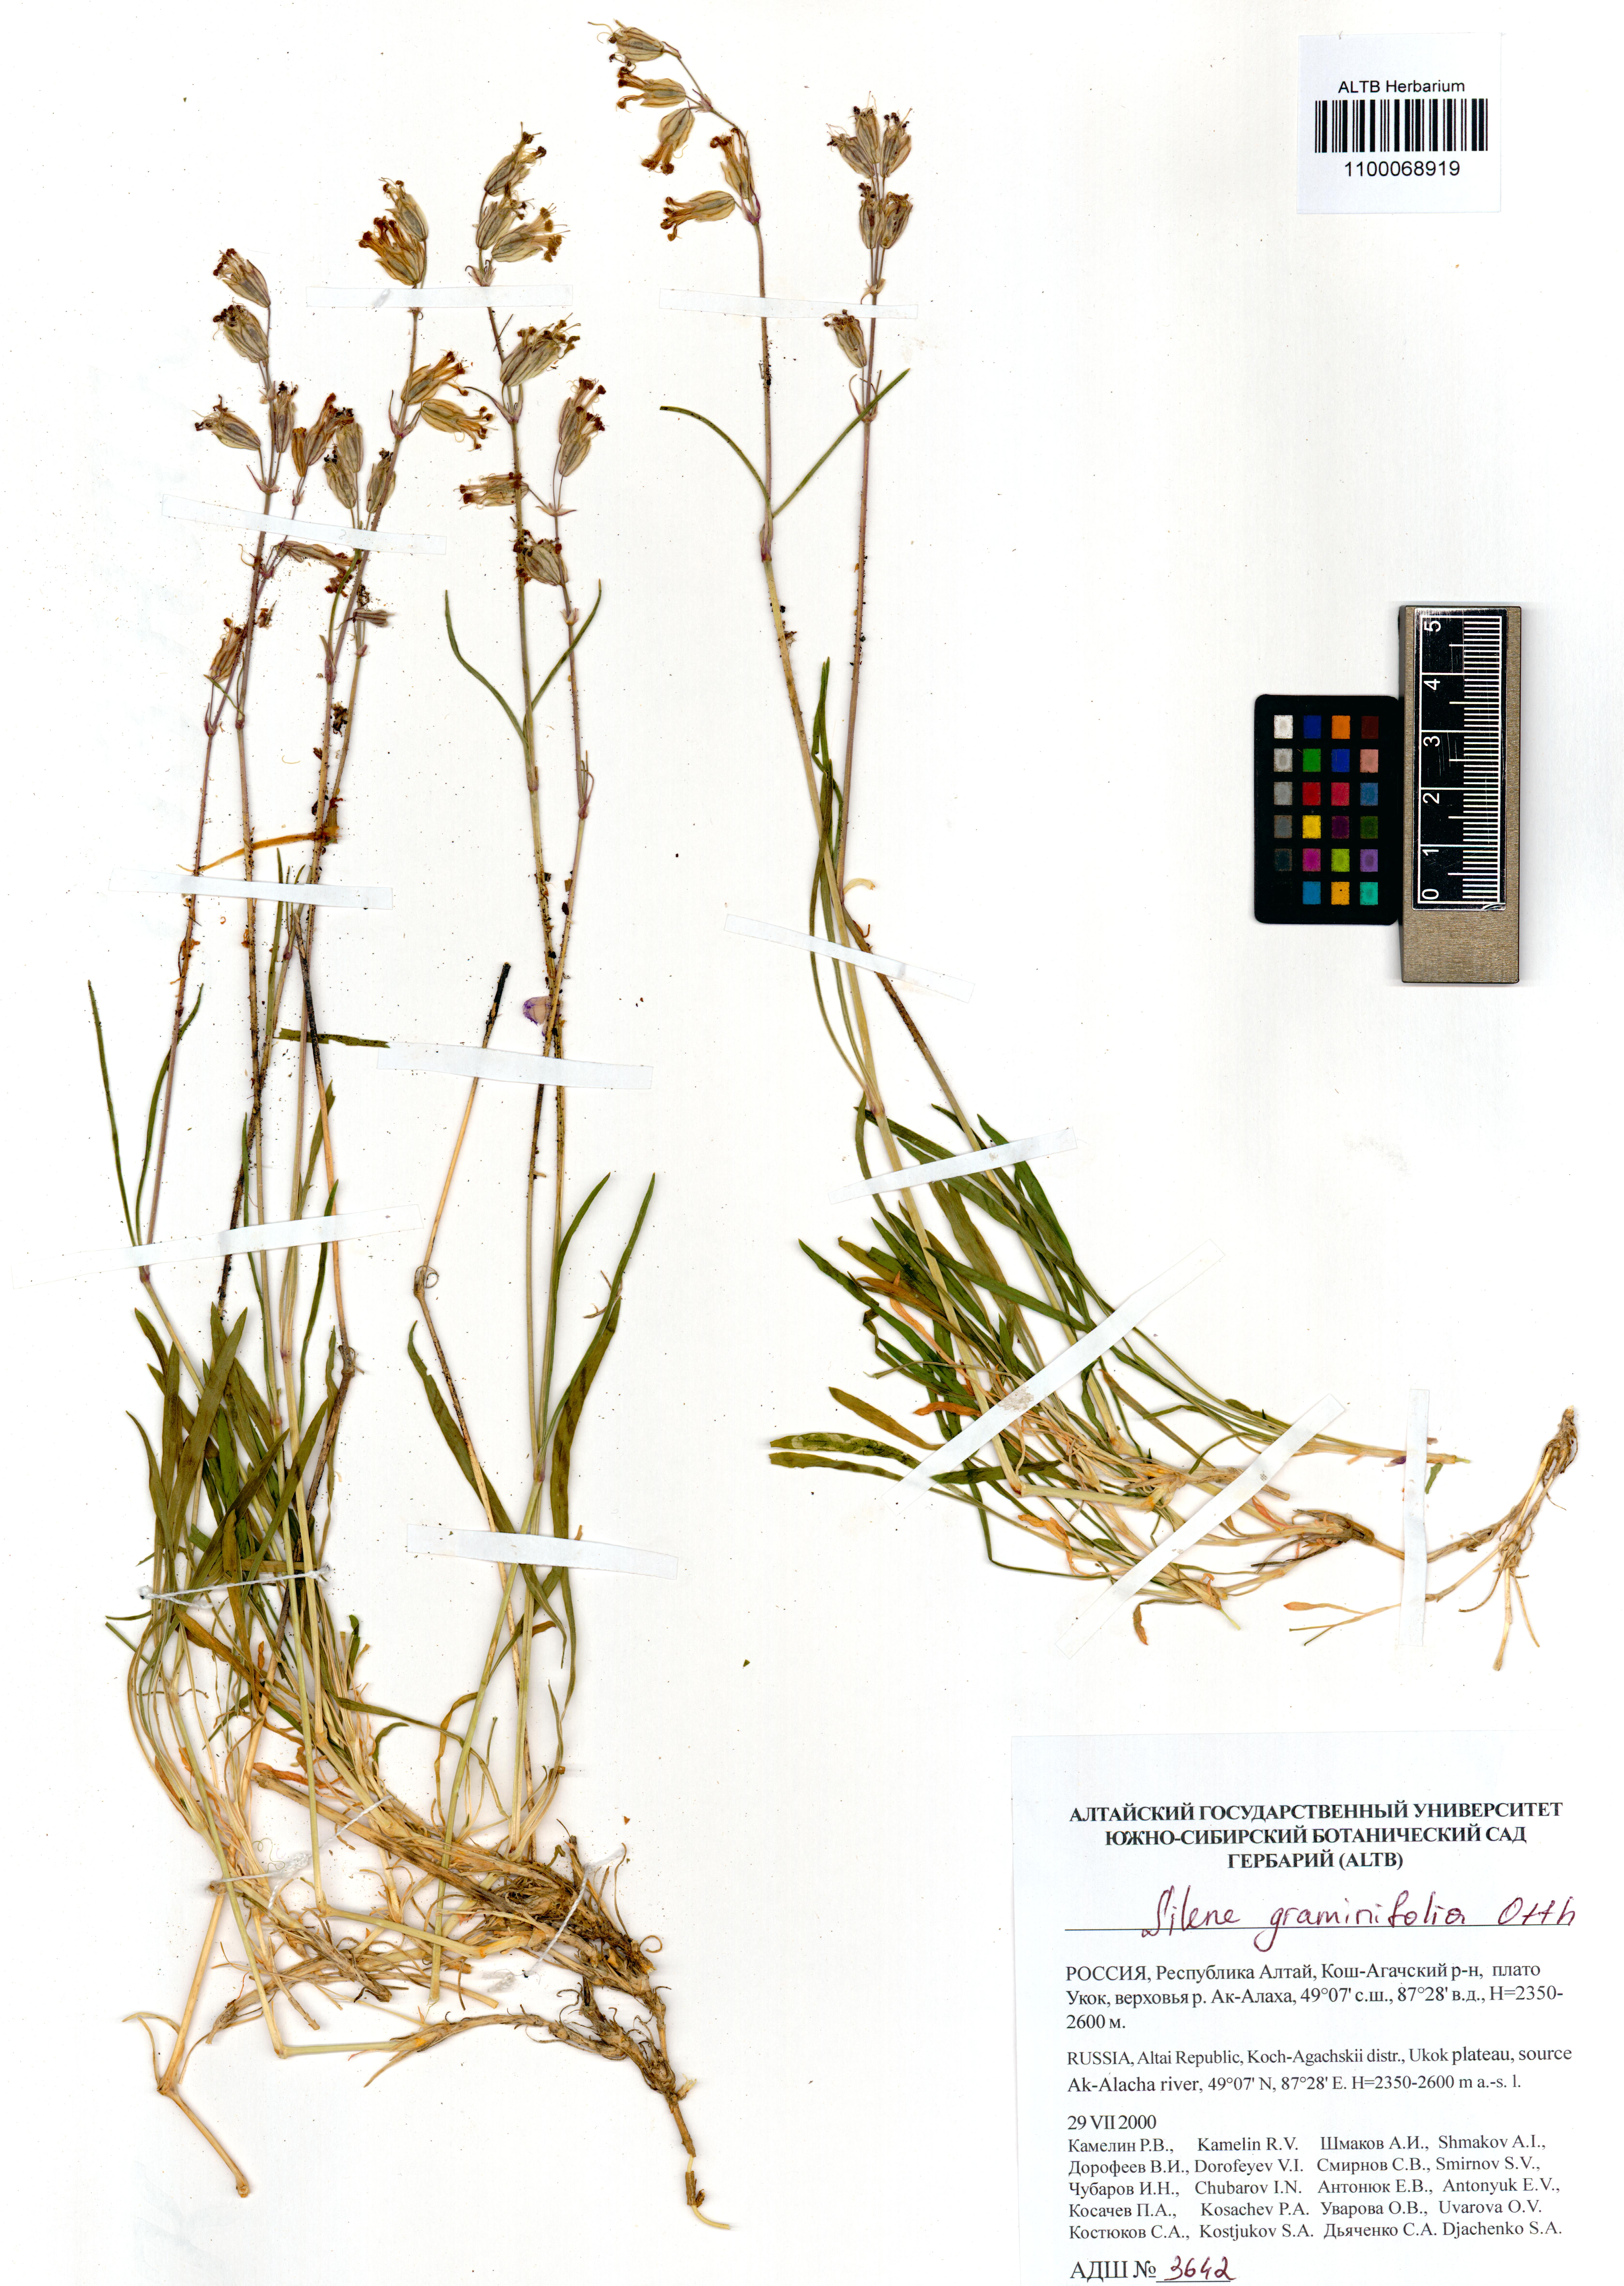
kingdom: Plantae
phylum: Tracheophyta
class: Magnoliopsida
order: Caryophyllales
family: Caryophyllaceae
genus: Silene
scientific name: Silene graminifolia
